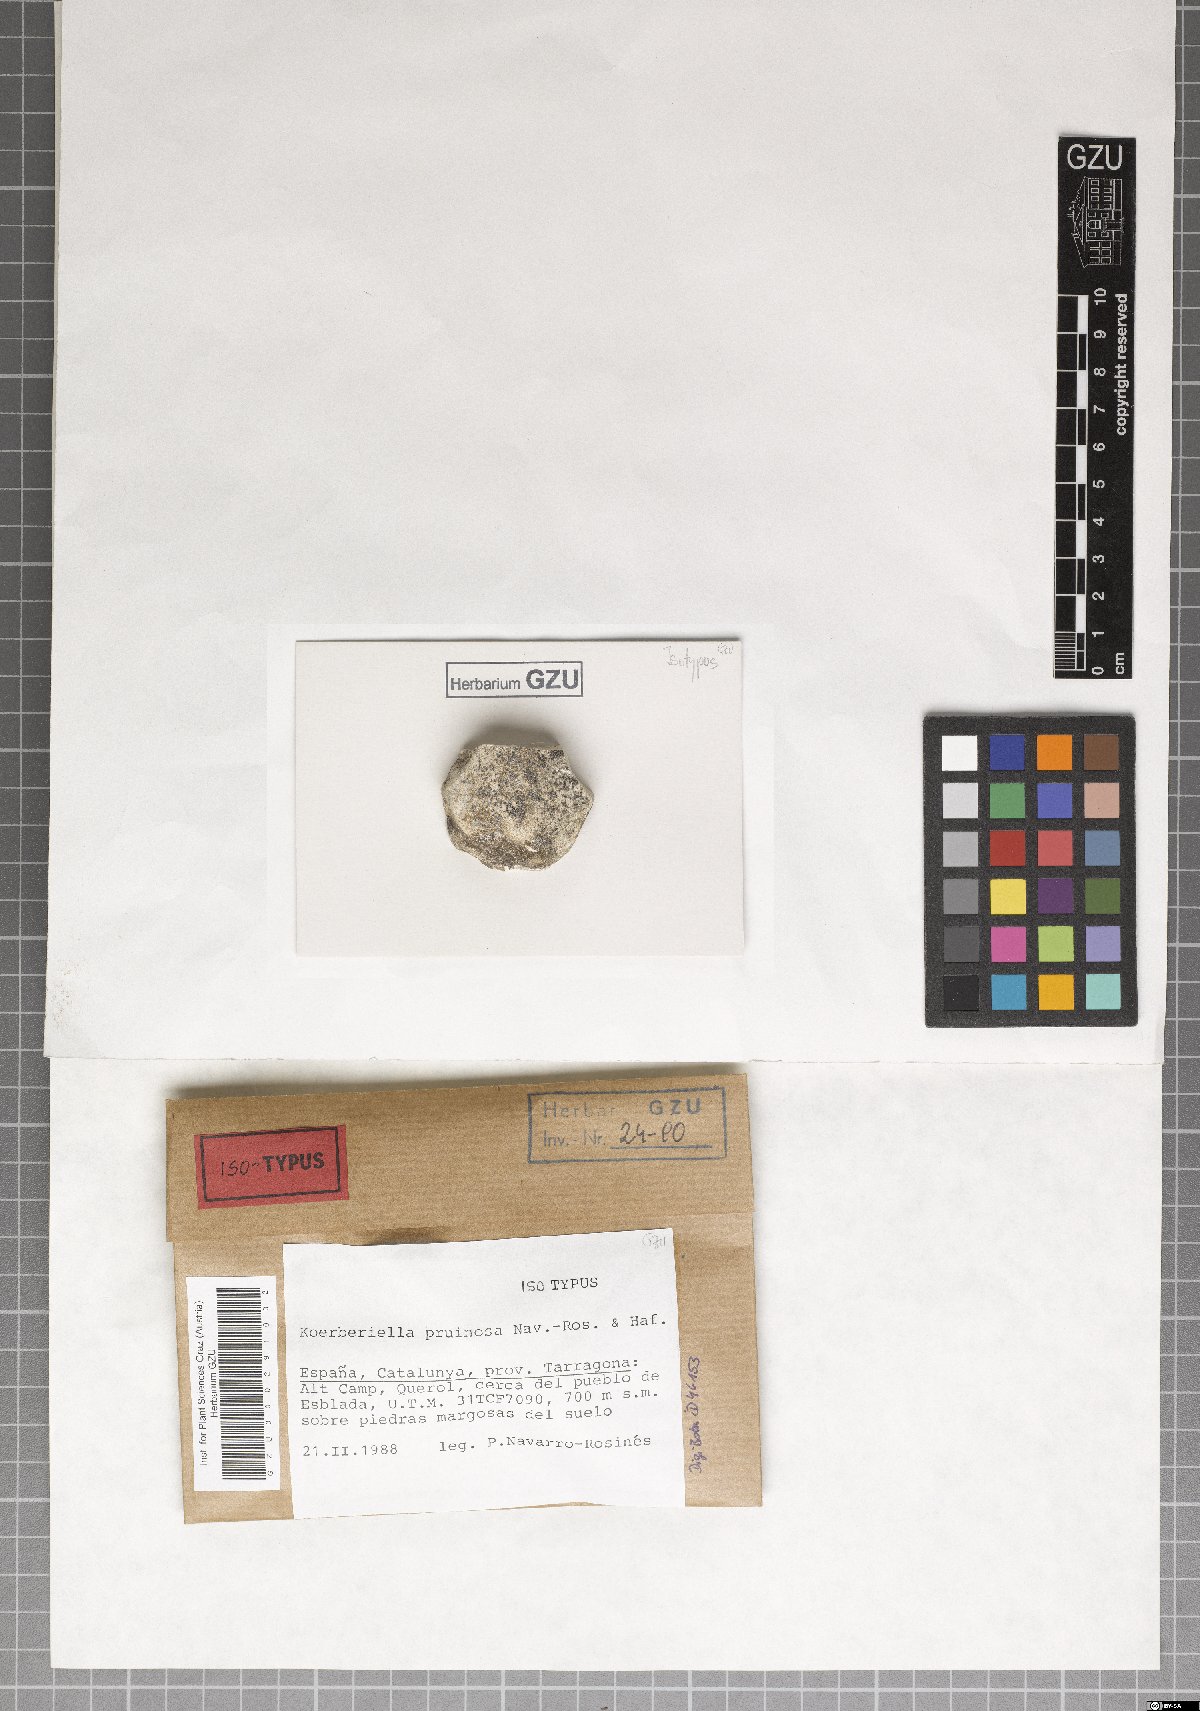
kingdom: Fungi
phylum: Ascomycota
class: Lecanoromycetes
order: Lecideales
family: Lecideaceae
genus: Koerberiella
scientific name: Koerberiella pruinosa
